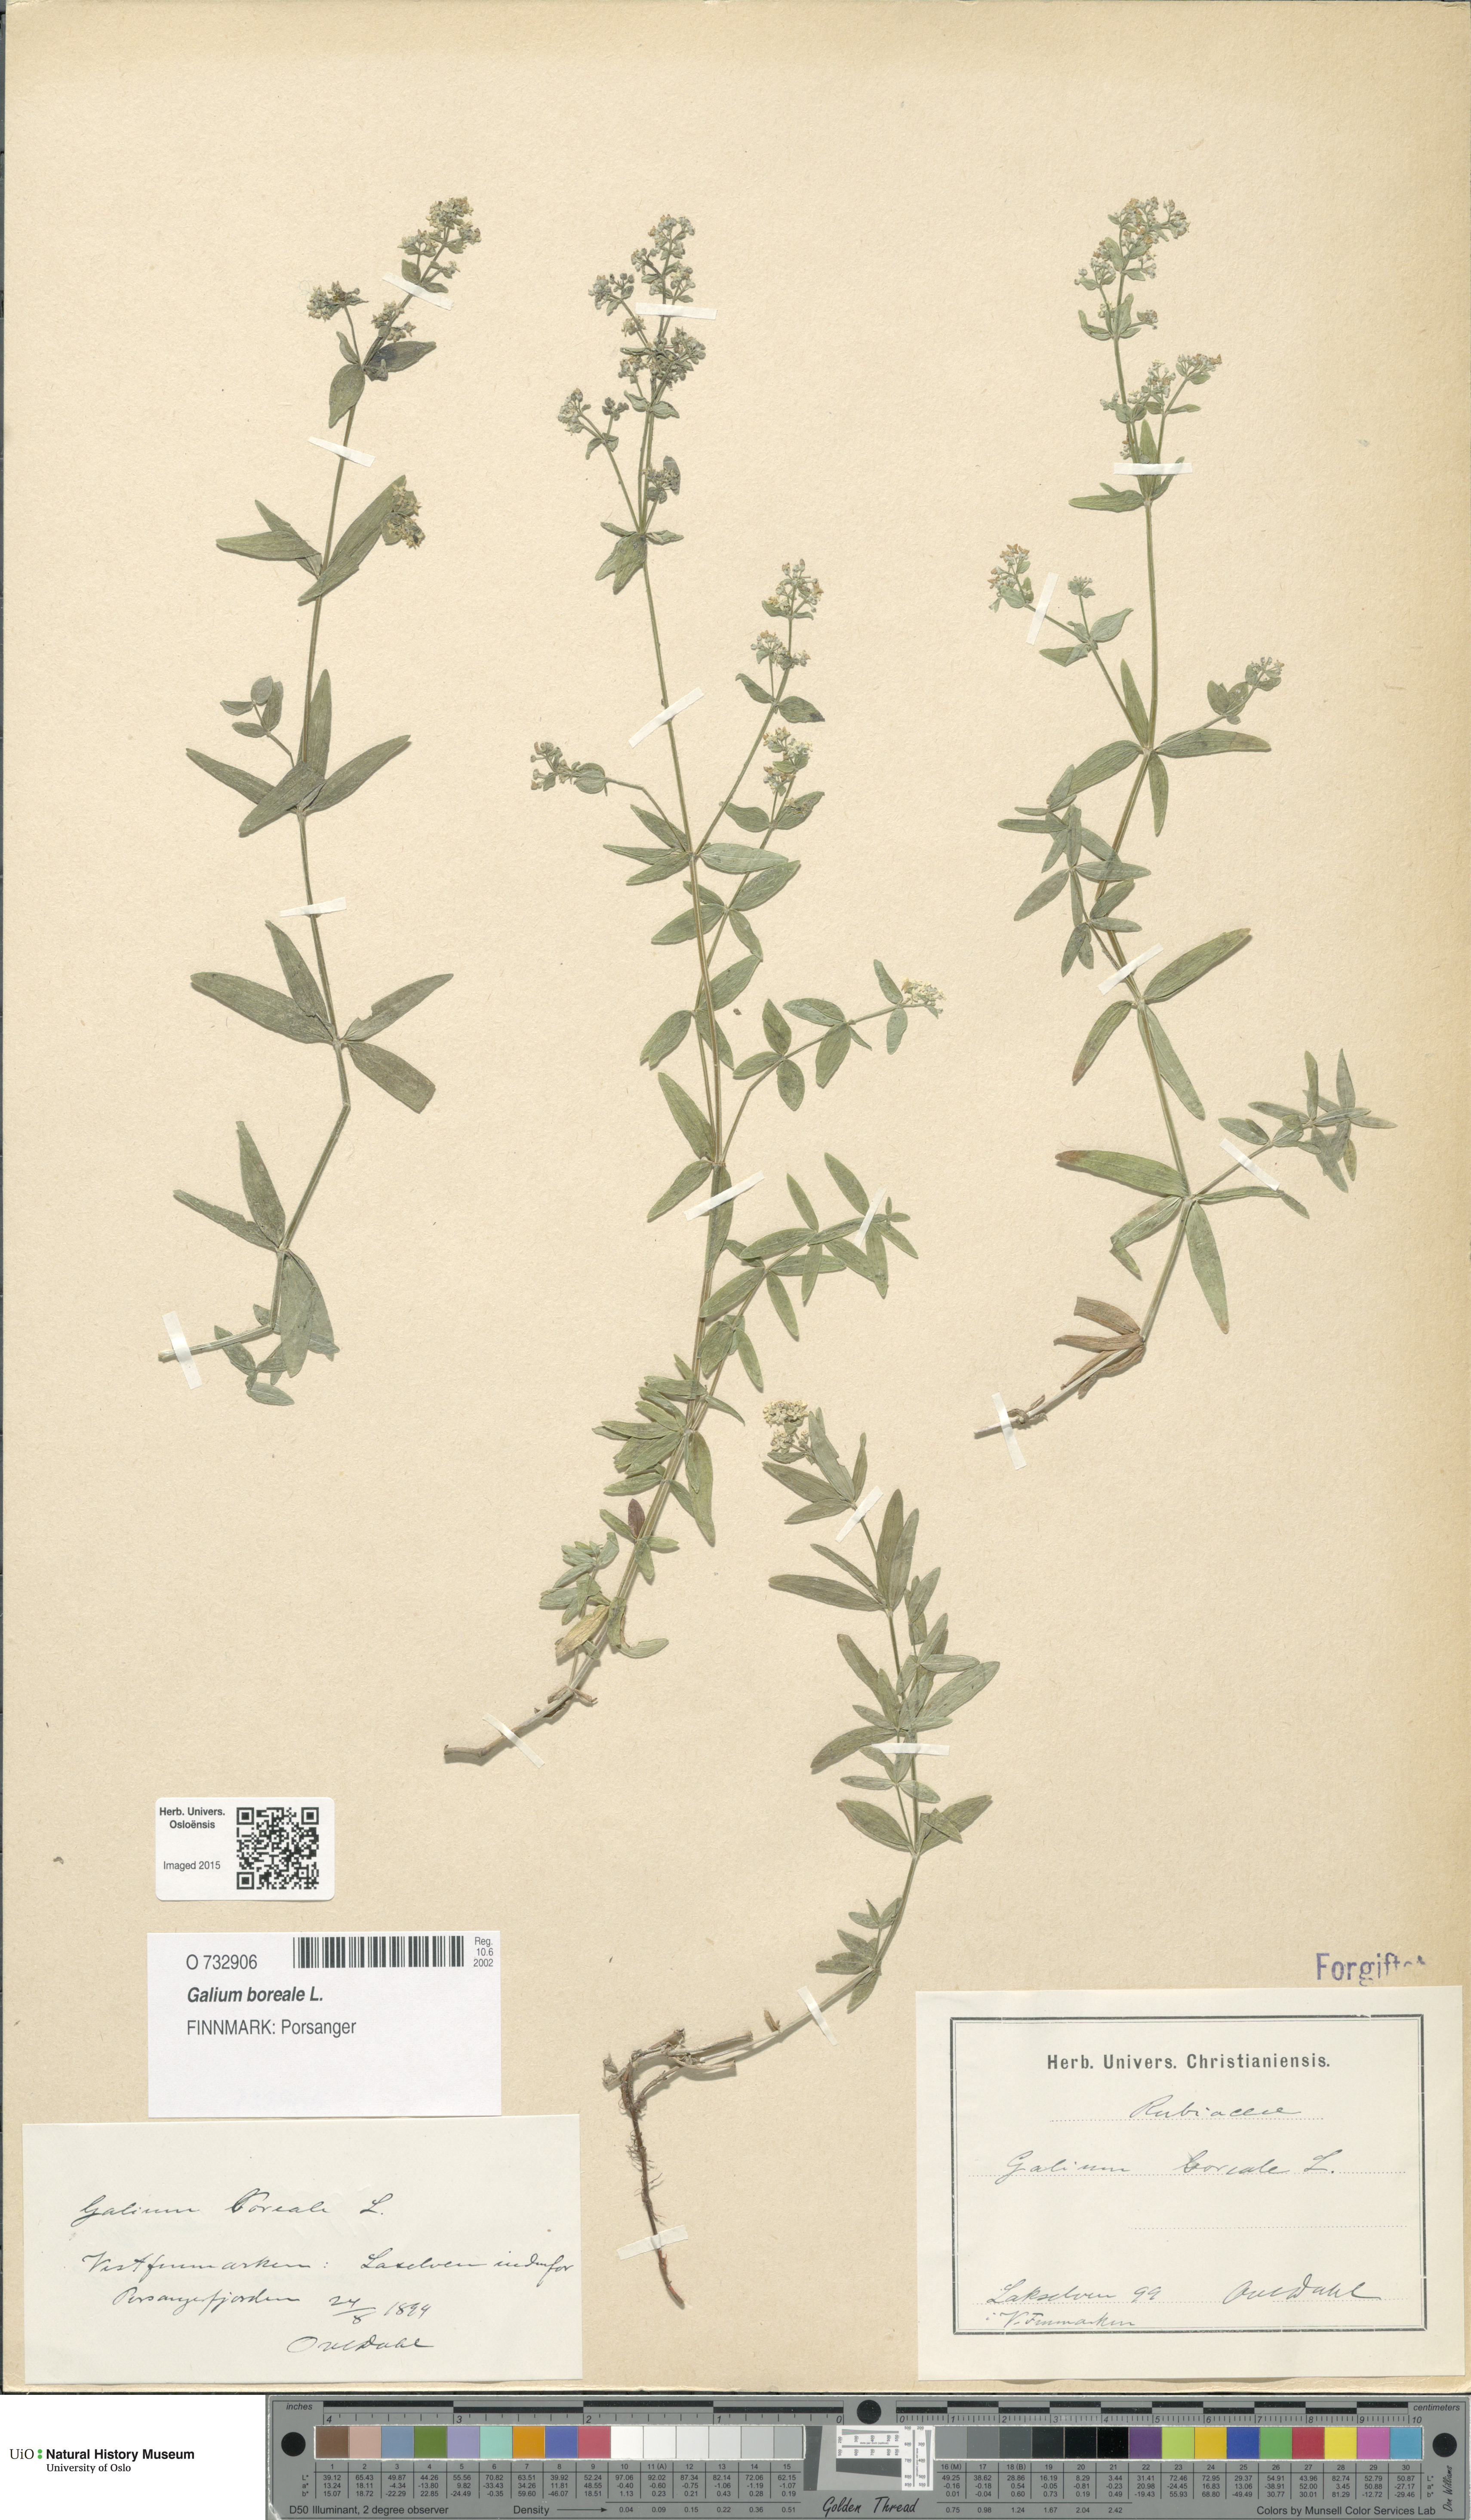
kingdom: Plantae
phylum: Tracheophyta
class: Magnoliopsida
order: Gentianales
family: Rubiaceae
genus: Galium
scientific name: Galium boreale
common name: Northern bedstraw
